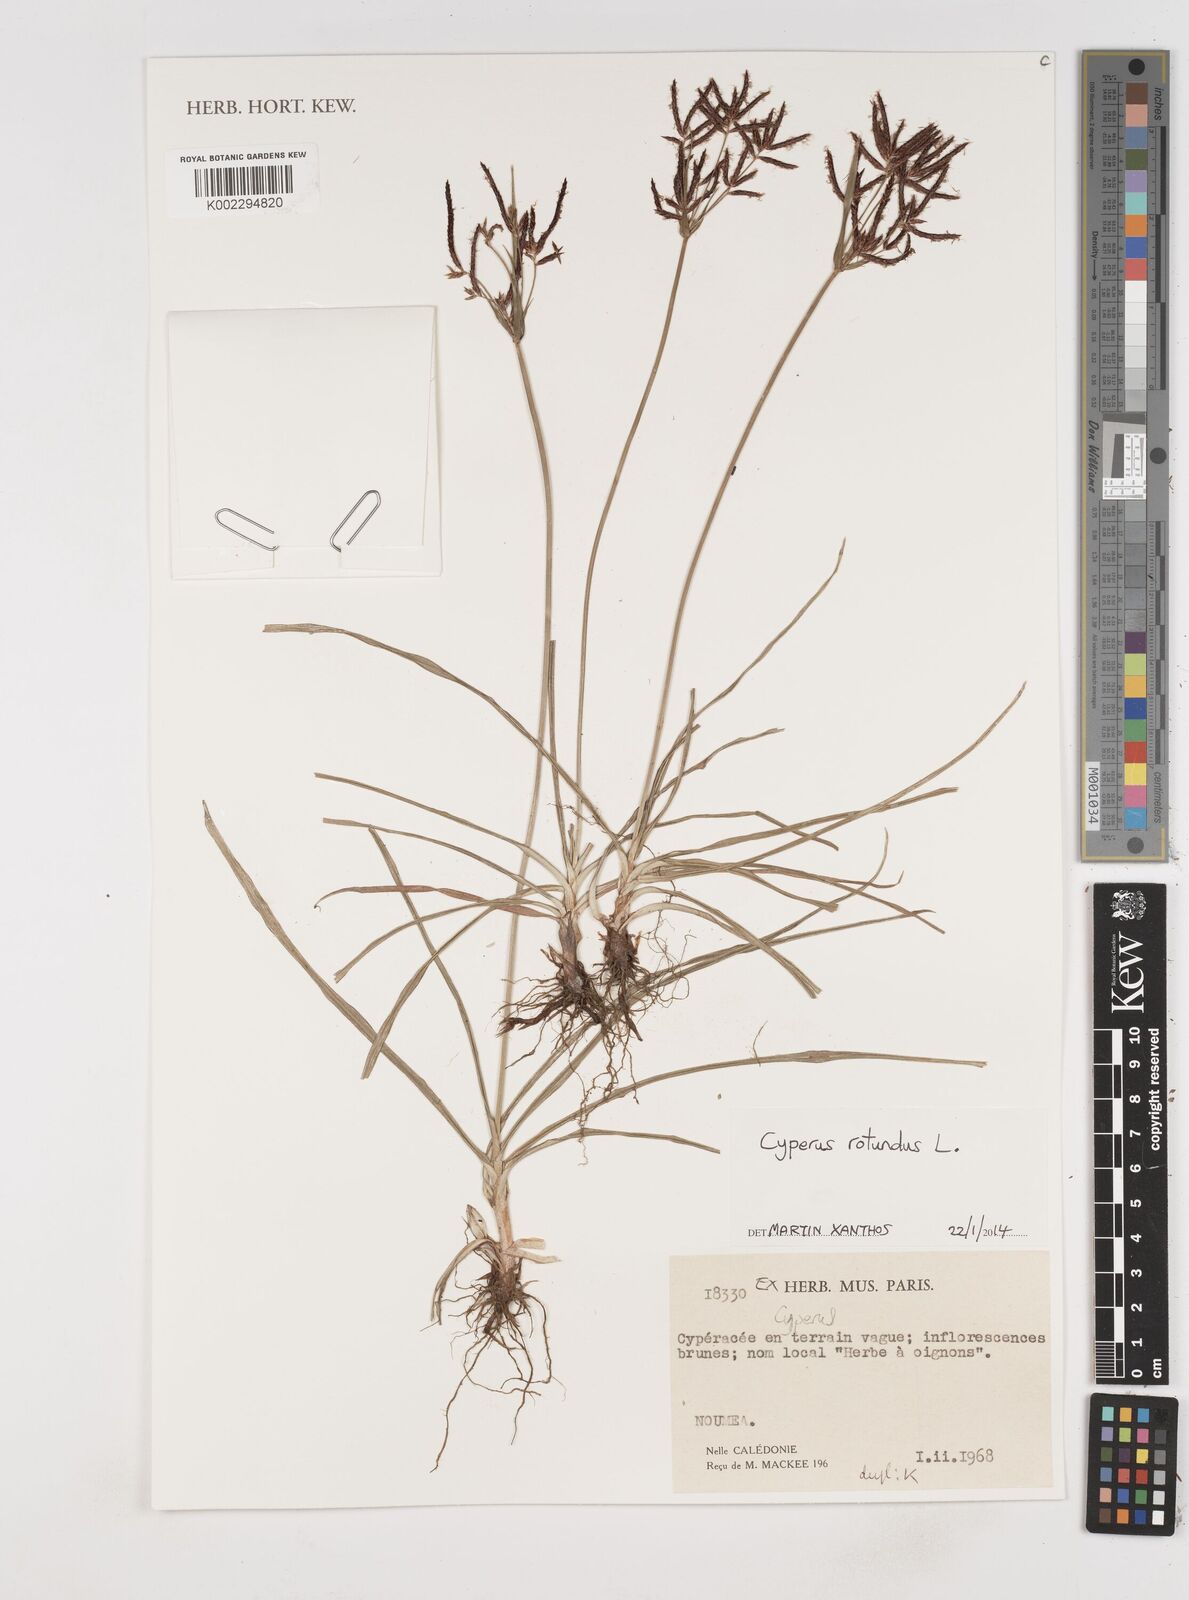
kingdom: Plantae
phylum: Tracheophyta
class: Liliopsida
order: Poales
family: Cyperaceae
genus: Cyperus
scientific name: Cyperus rotundus
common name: Nutgrass
